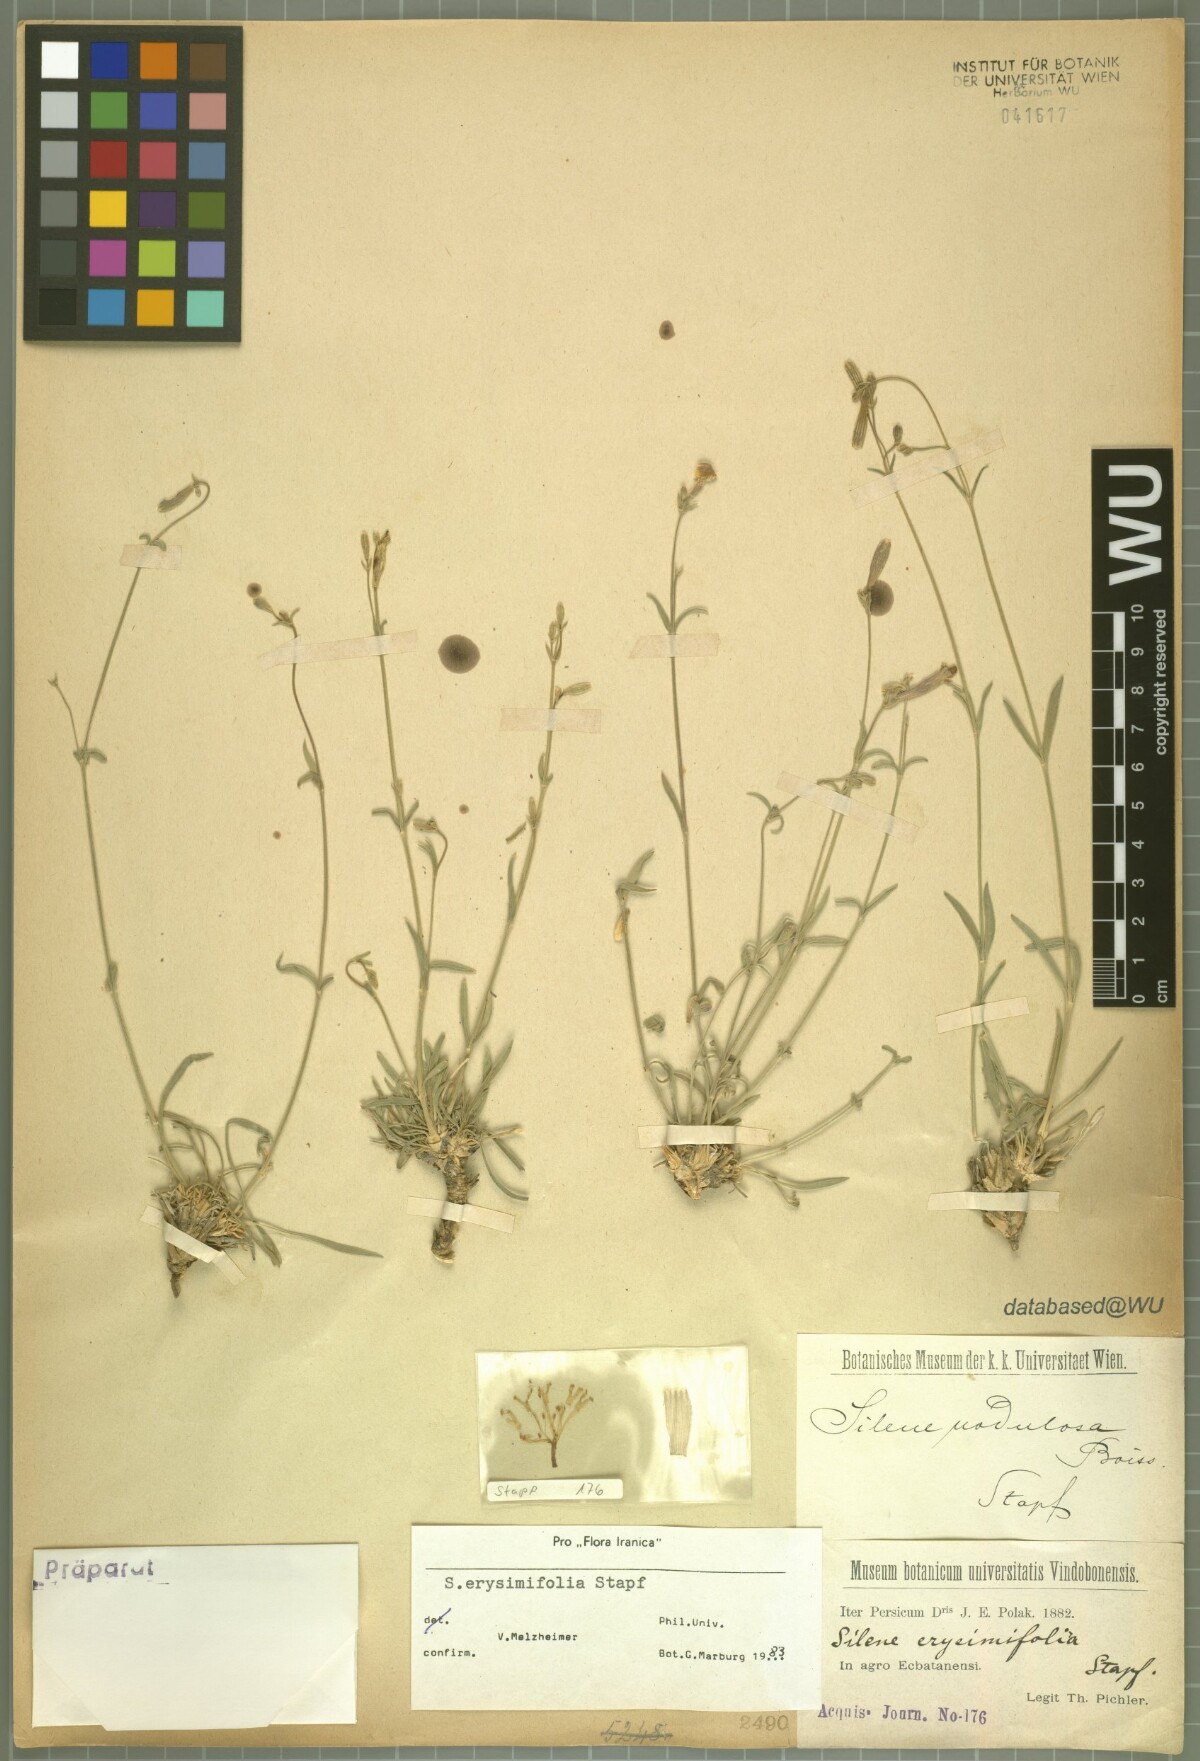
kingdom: Plantae
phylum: Tracheophyta
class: Magnoliopsida
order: Caryophyllales
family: Caryophyllaceae
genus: Silene
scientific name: Silene erysimifolia
